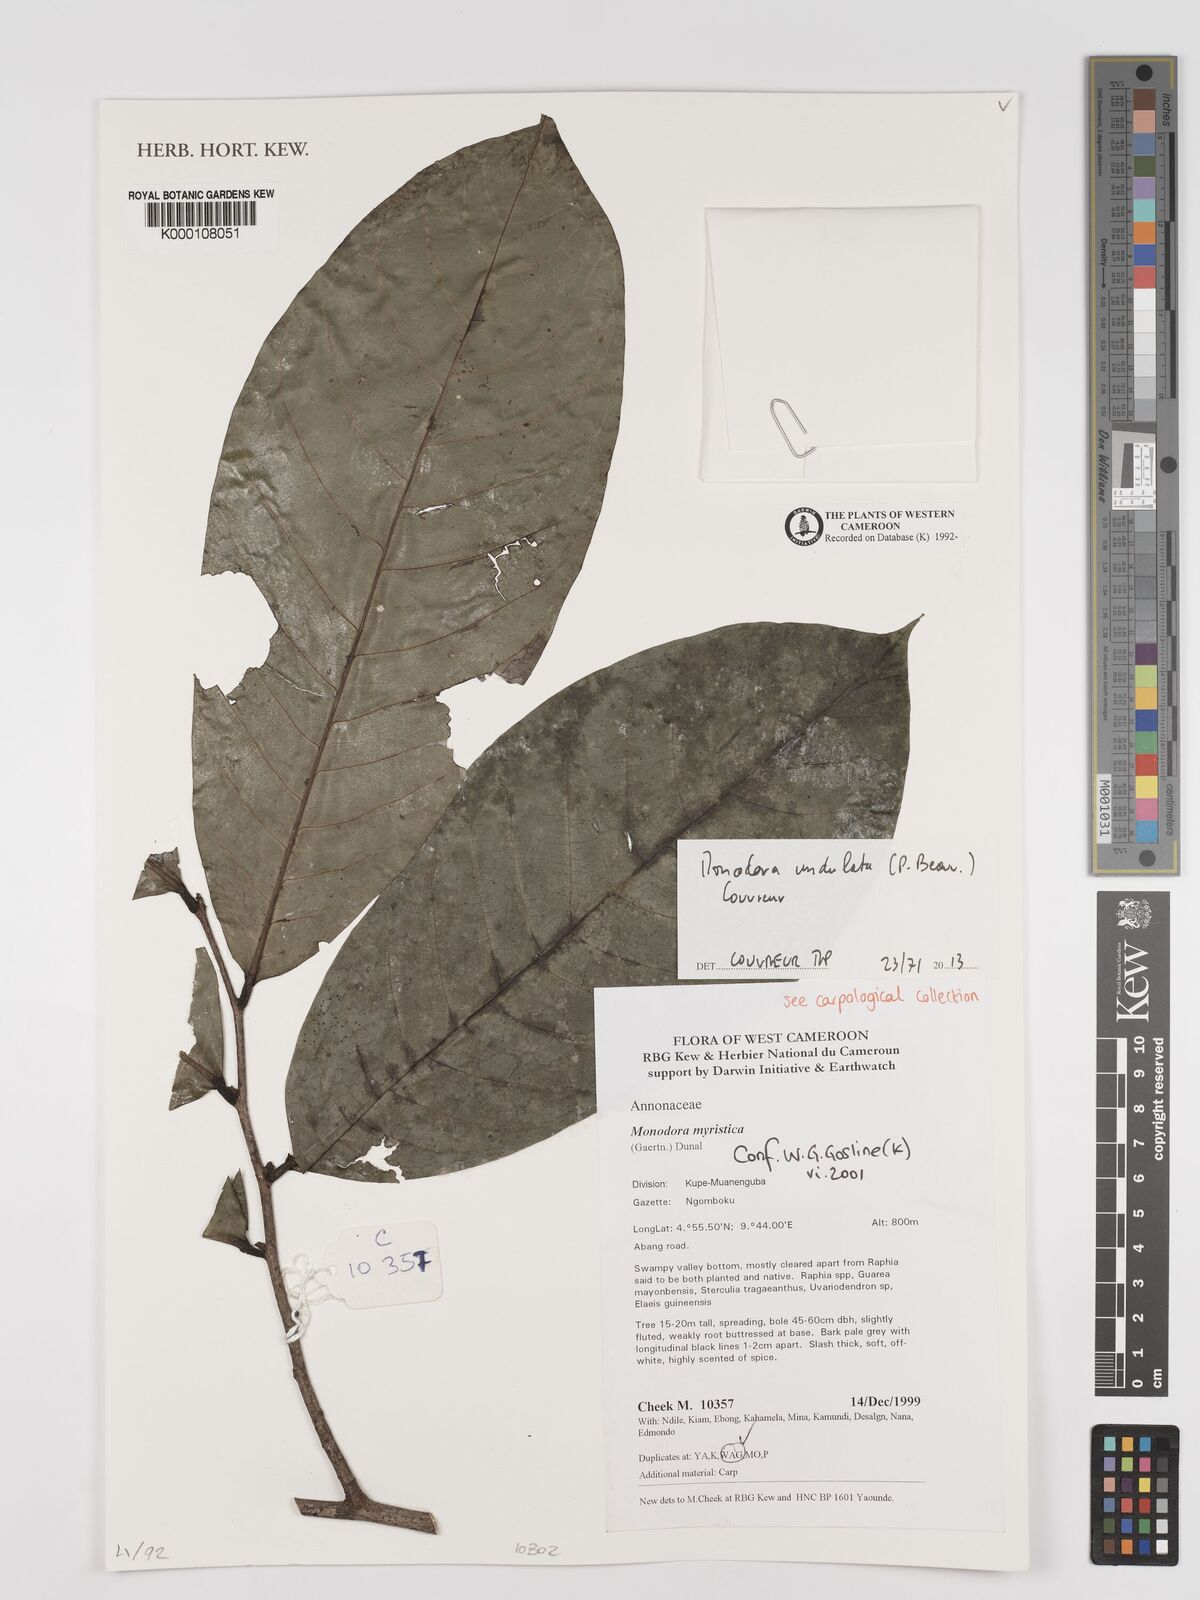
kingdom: Plantae
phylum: Tracheophyta
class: Magnoliopsida
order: Magnoliales
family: Annonaceae
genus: Monodora
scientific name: Monodora myristica
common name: African nutmeg
